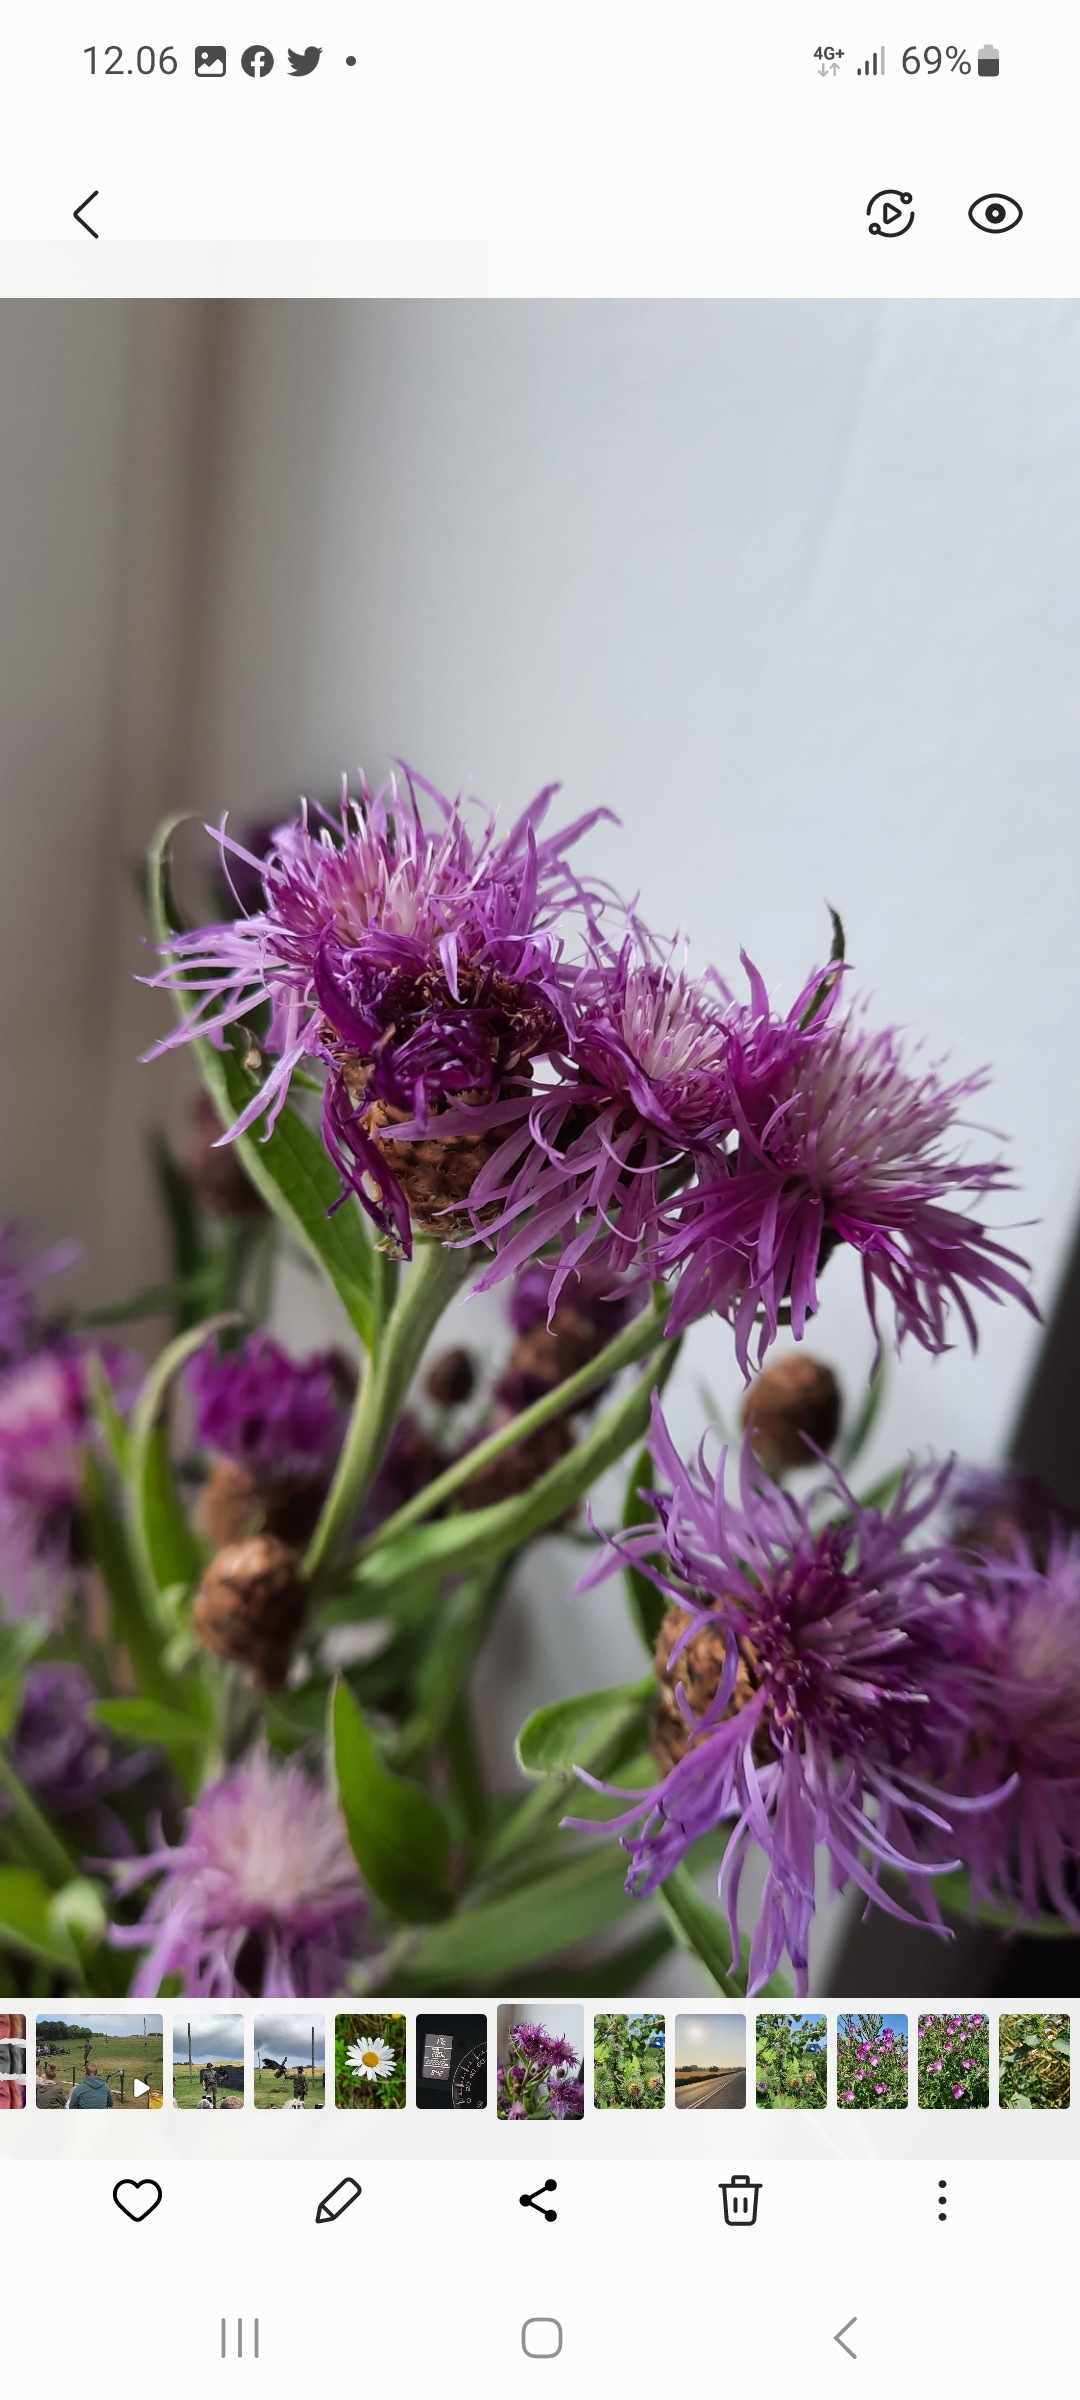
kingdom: Plantae
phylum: Tracheophyta
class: Magnoliopsida
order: Asterales
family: Asteraceae
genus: Centaurea
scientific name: Centaurea jacea
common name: Almindelig knopurt
